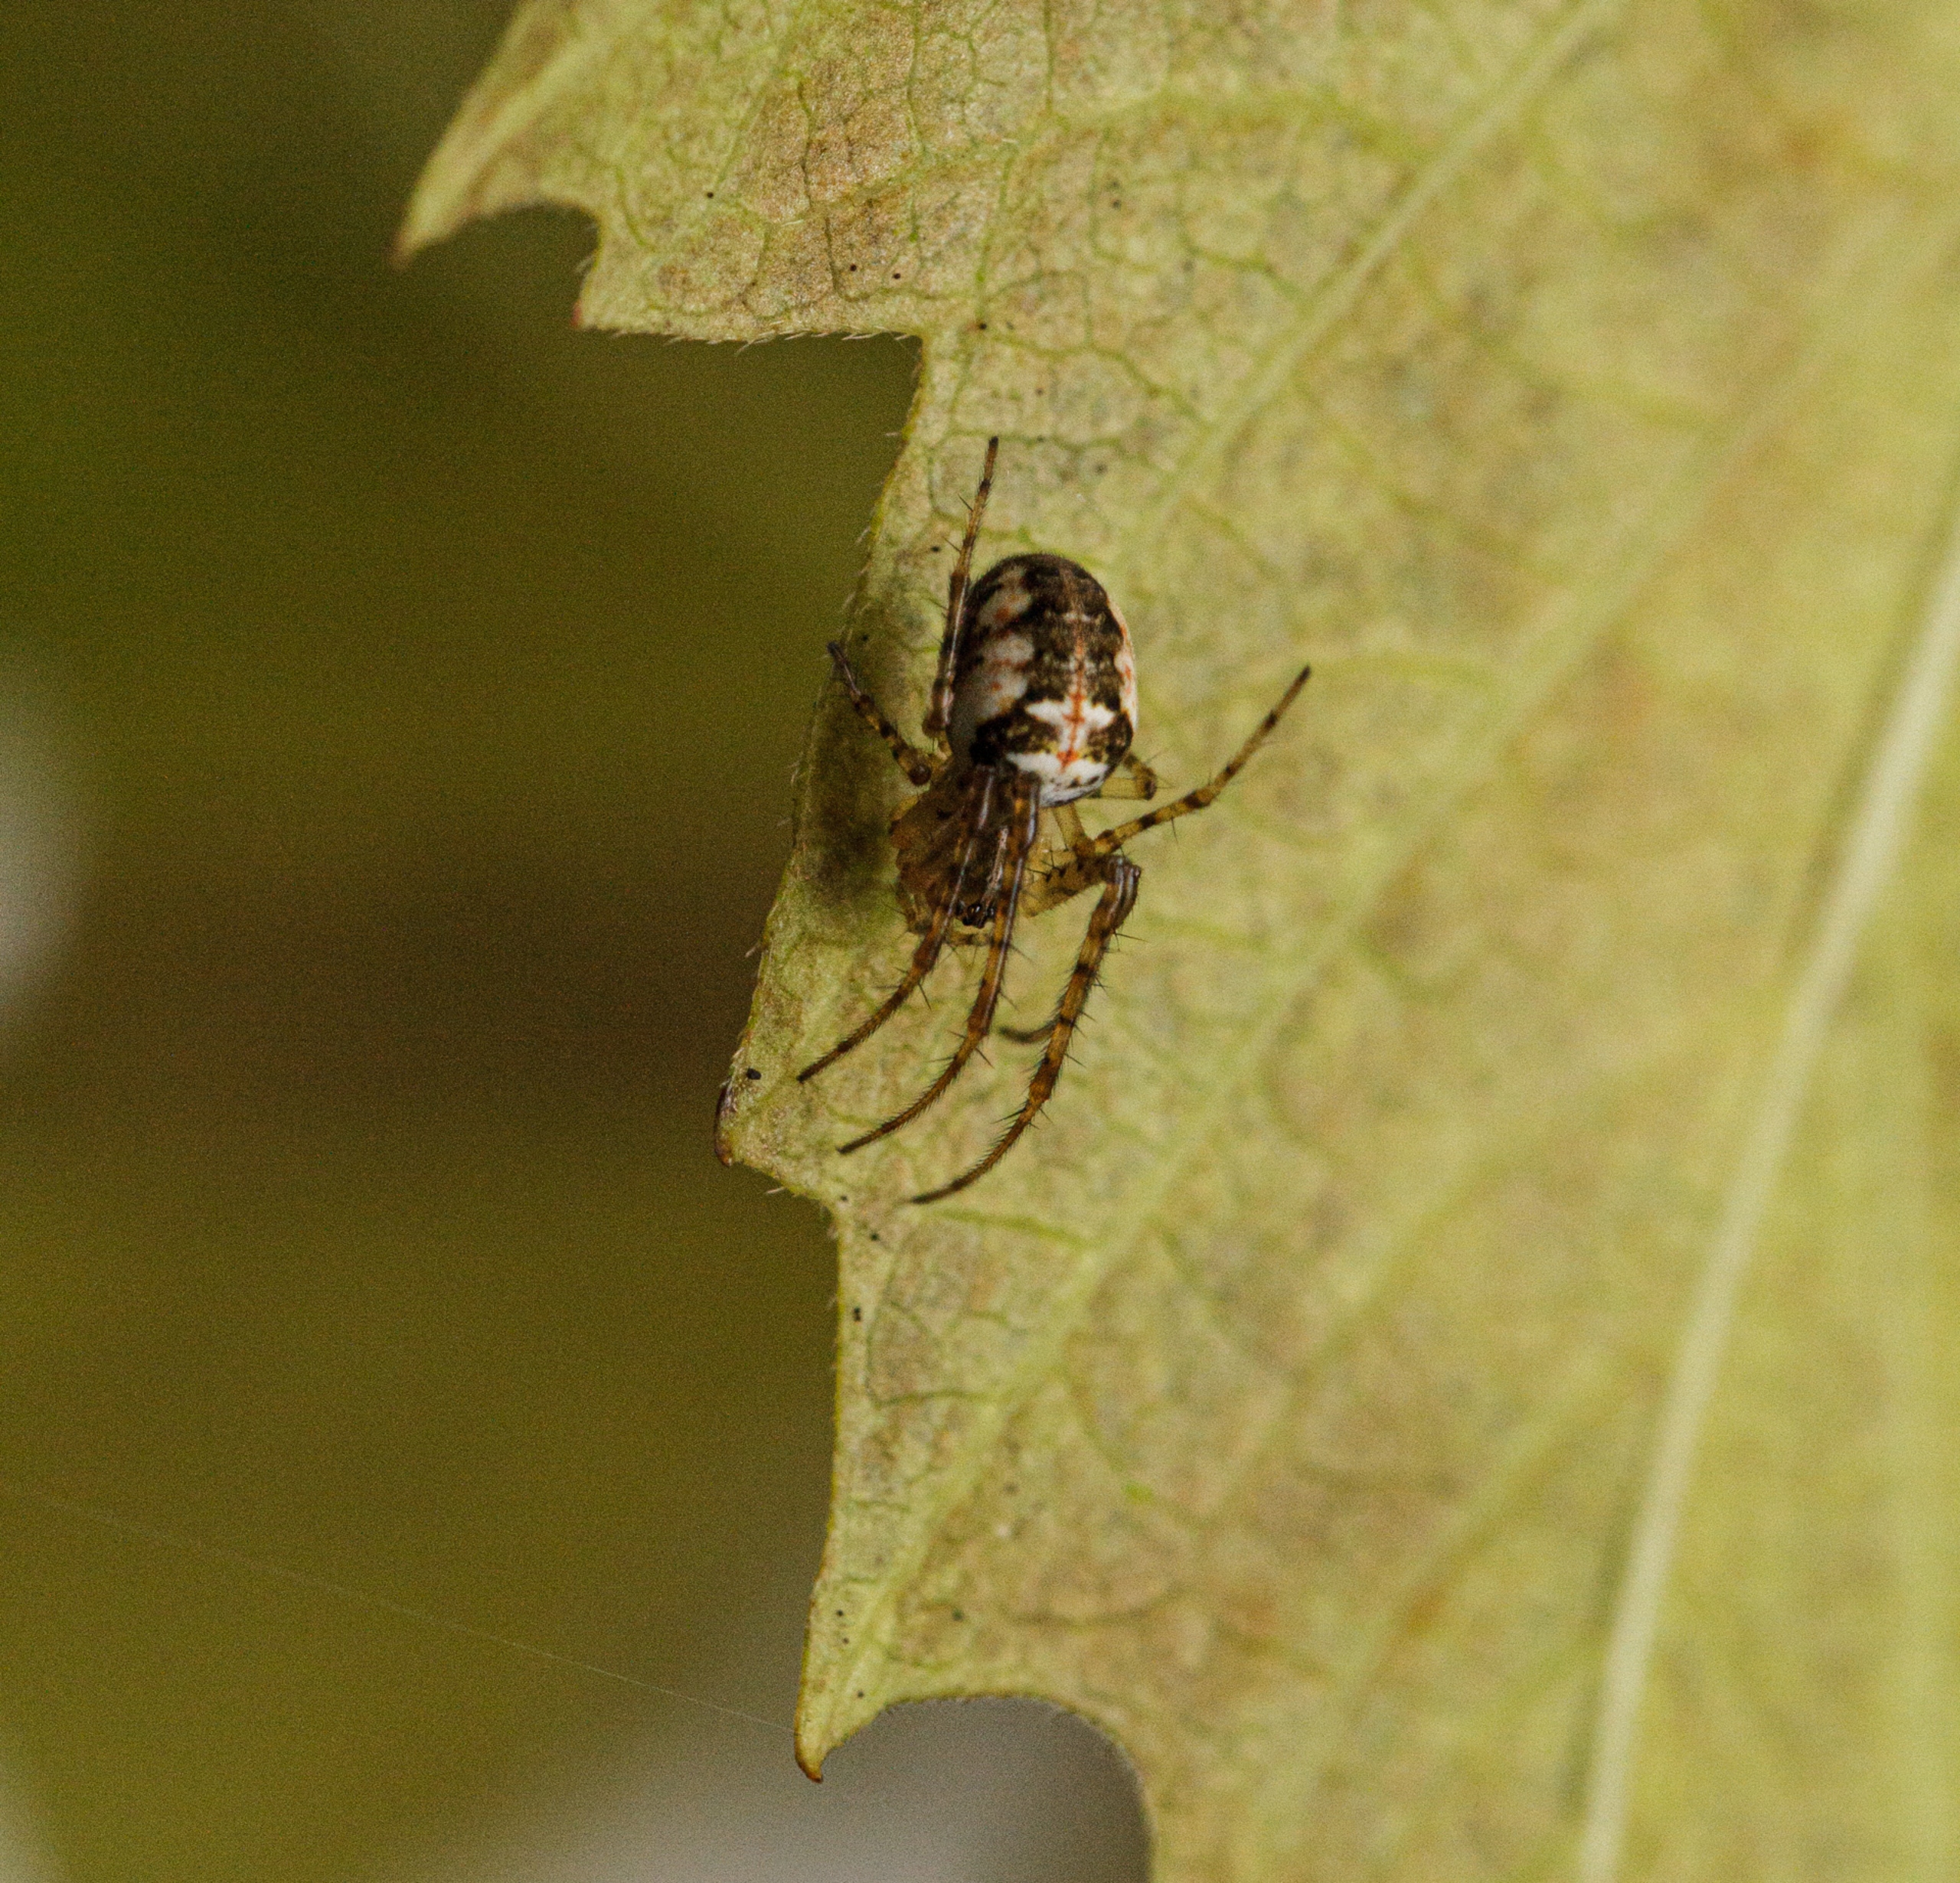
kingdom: Animalia
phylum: Arthropoda
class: Arachnida
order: Araneae
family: Tetragnathidae
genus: Metellina
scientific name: Metellina
